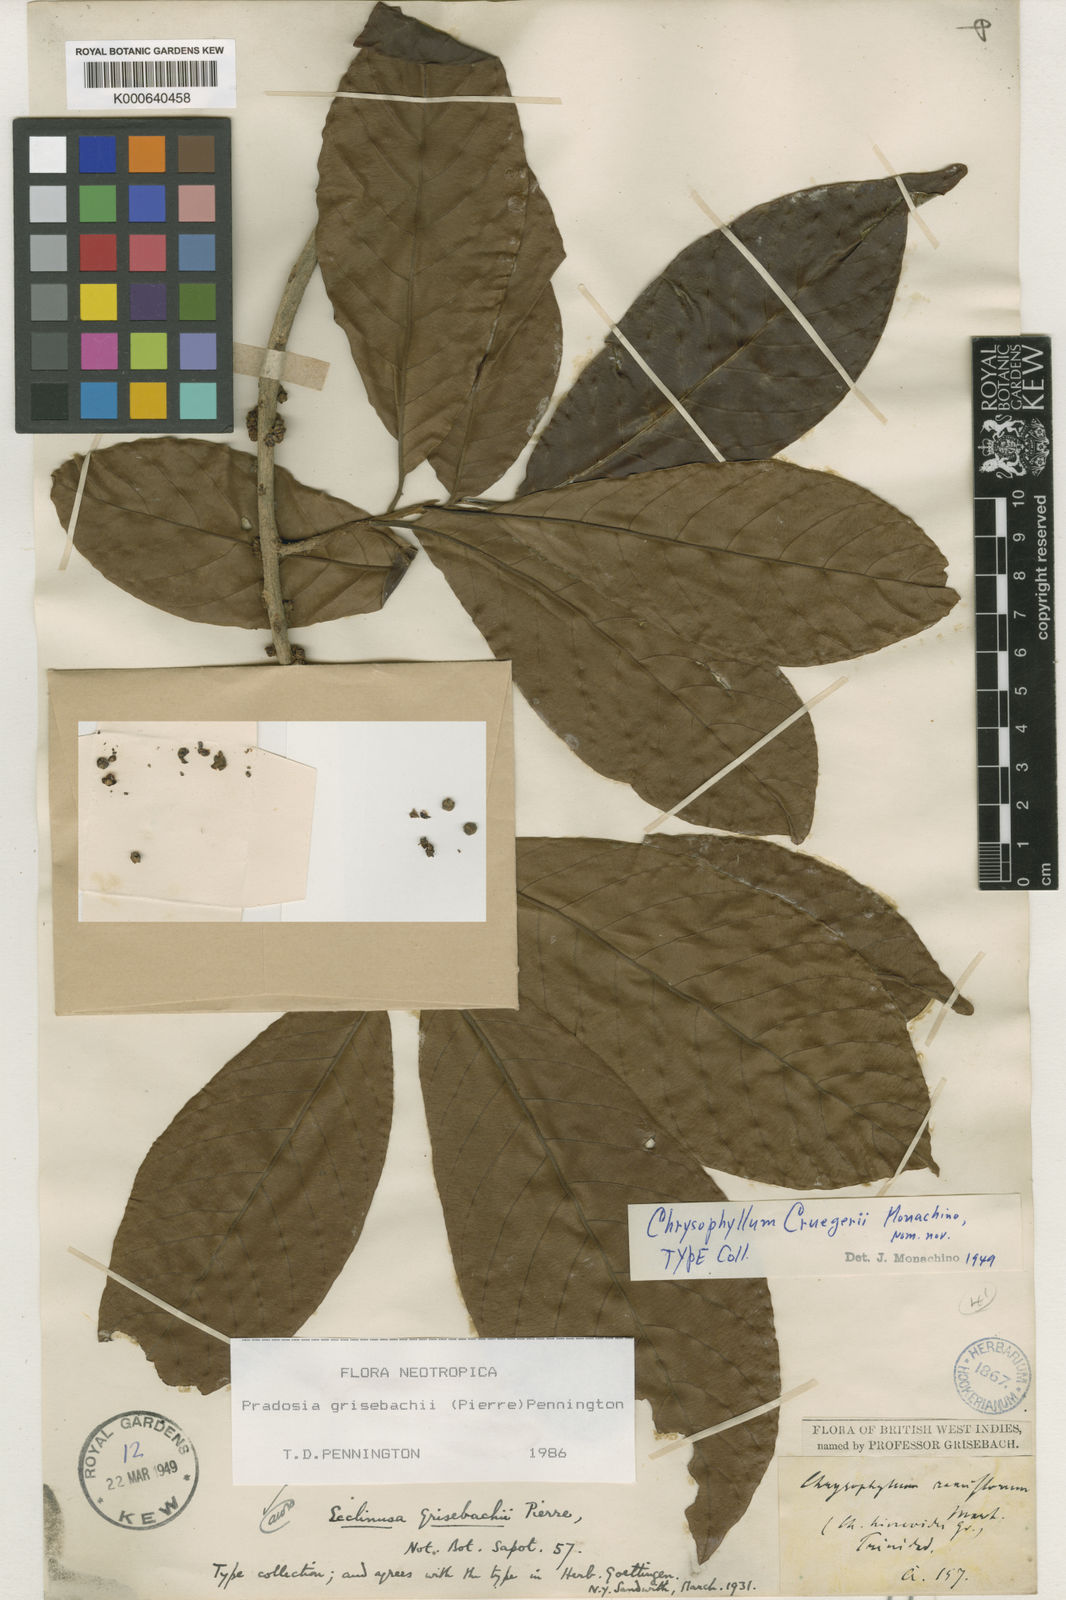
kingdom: Plantae
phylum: Tracheophyta
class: Magnoliopsida
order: Ericales
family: Sapotaceae
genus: Pradosia
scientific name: Pradosia grisebachii
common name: Grisebach pradosia
